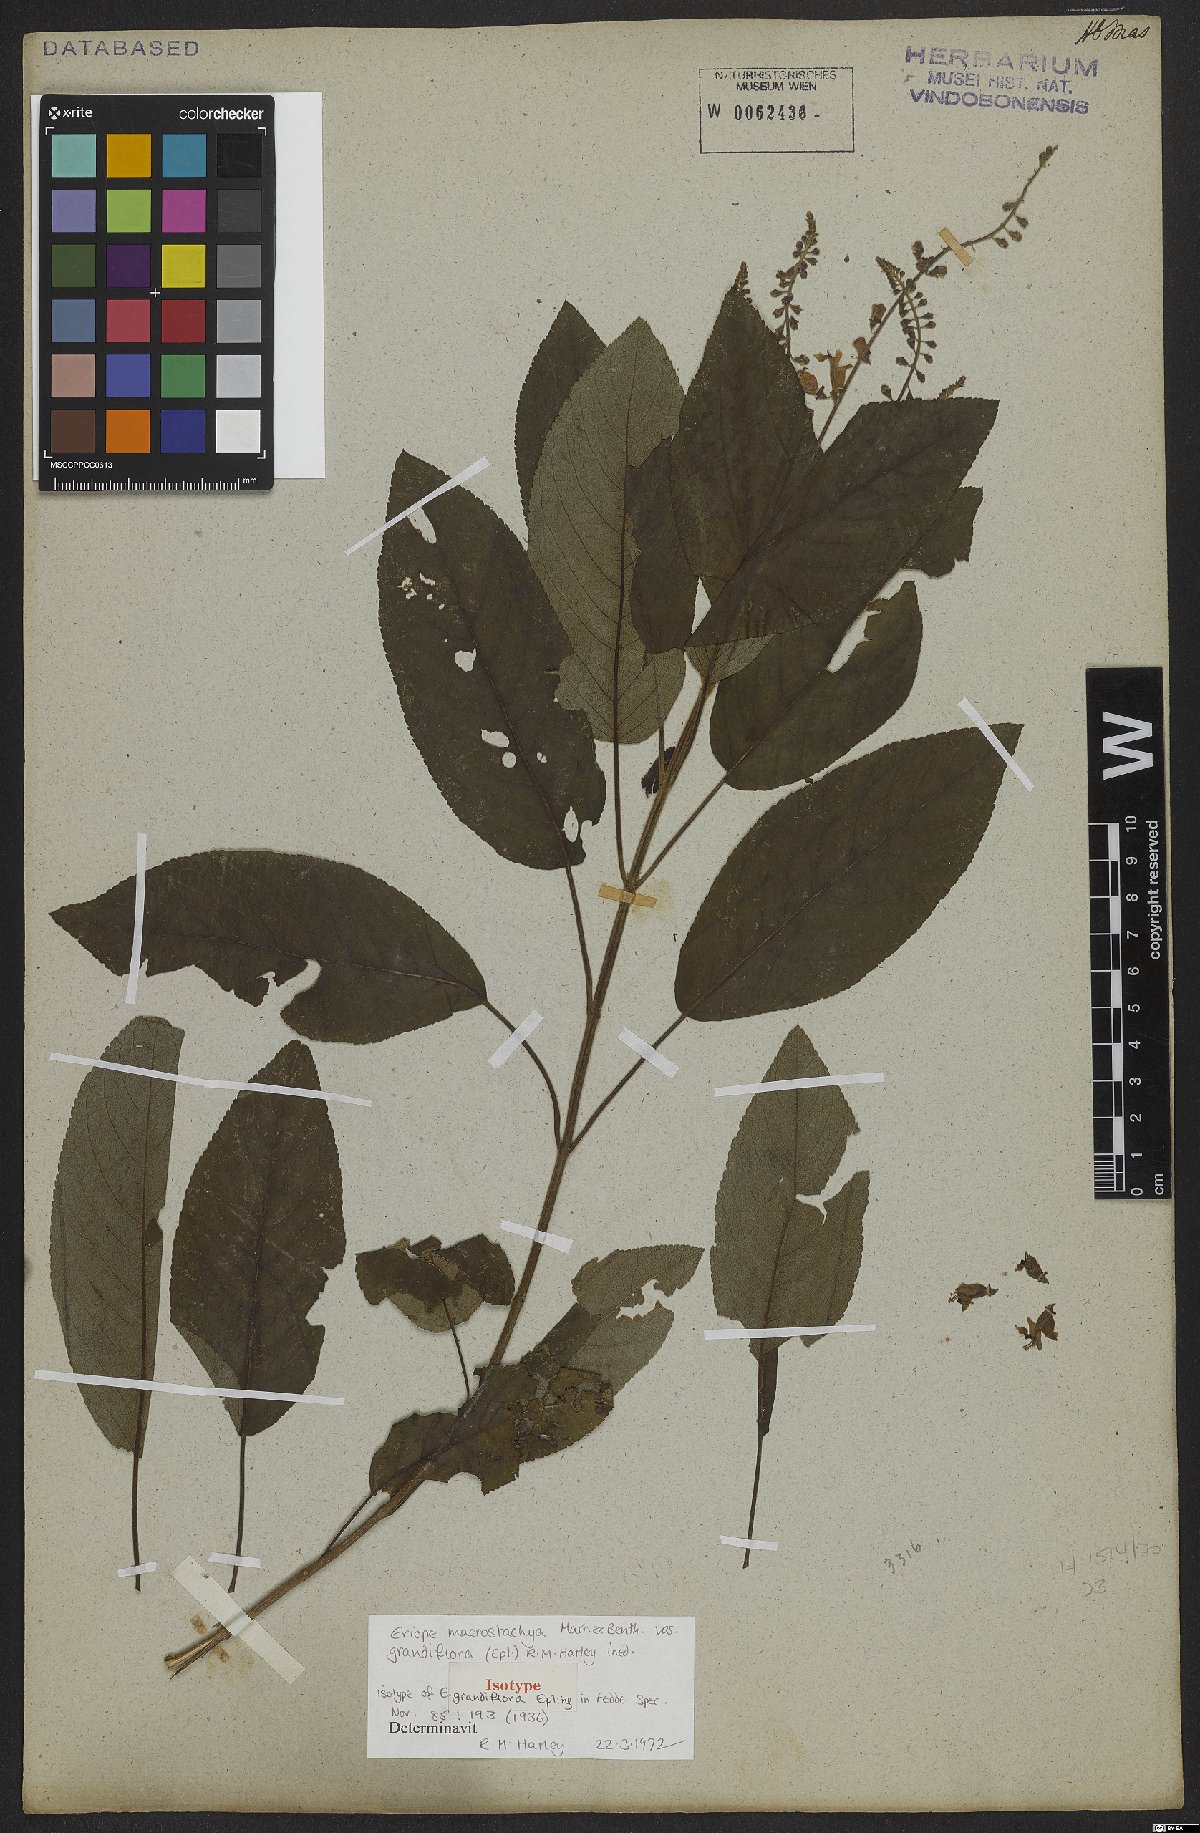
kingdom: Plantae
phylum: Tracheophyta
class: Magnoliopsida
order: Lamiales
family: Lamiaceae
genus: Eriope
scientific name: Eriope macrostachya
